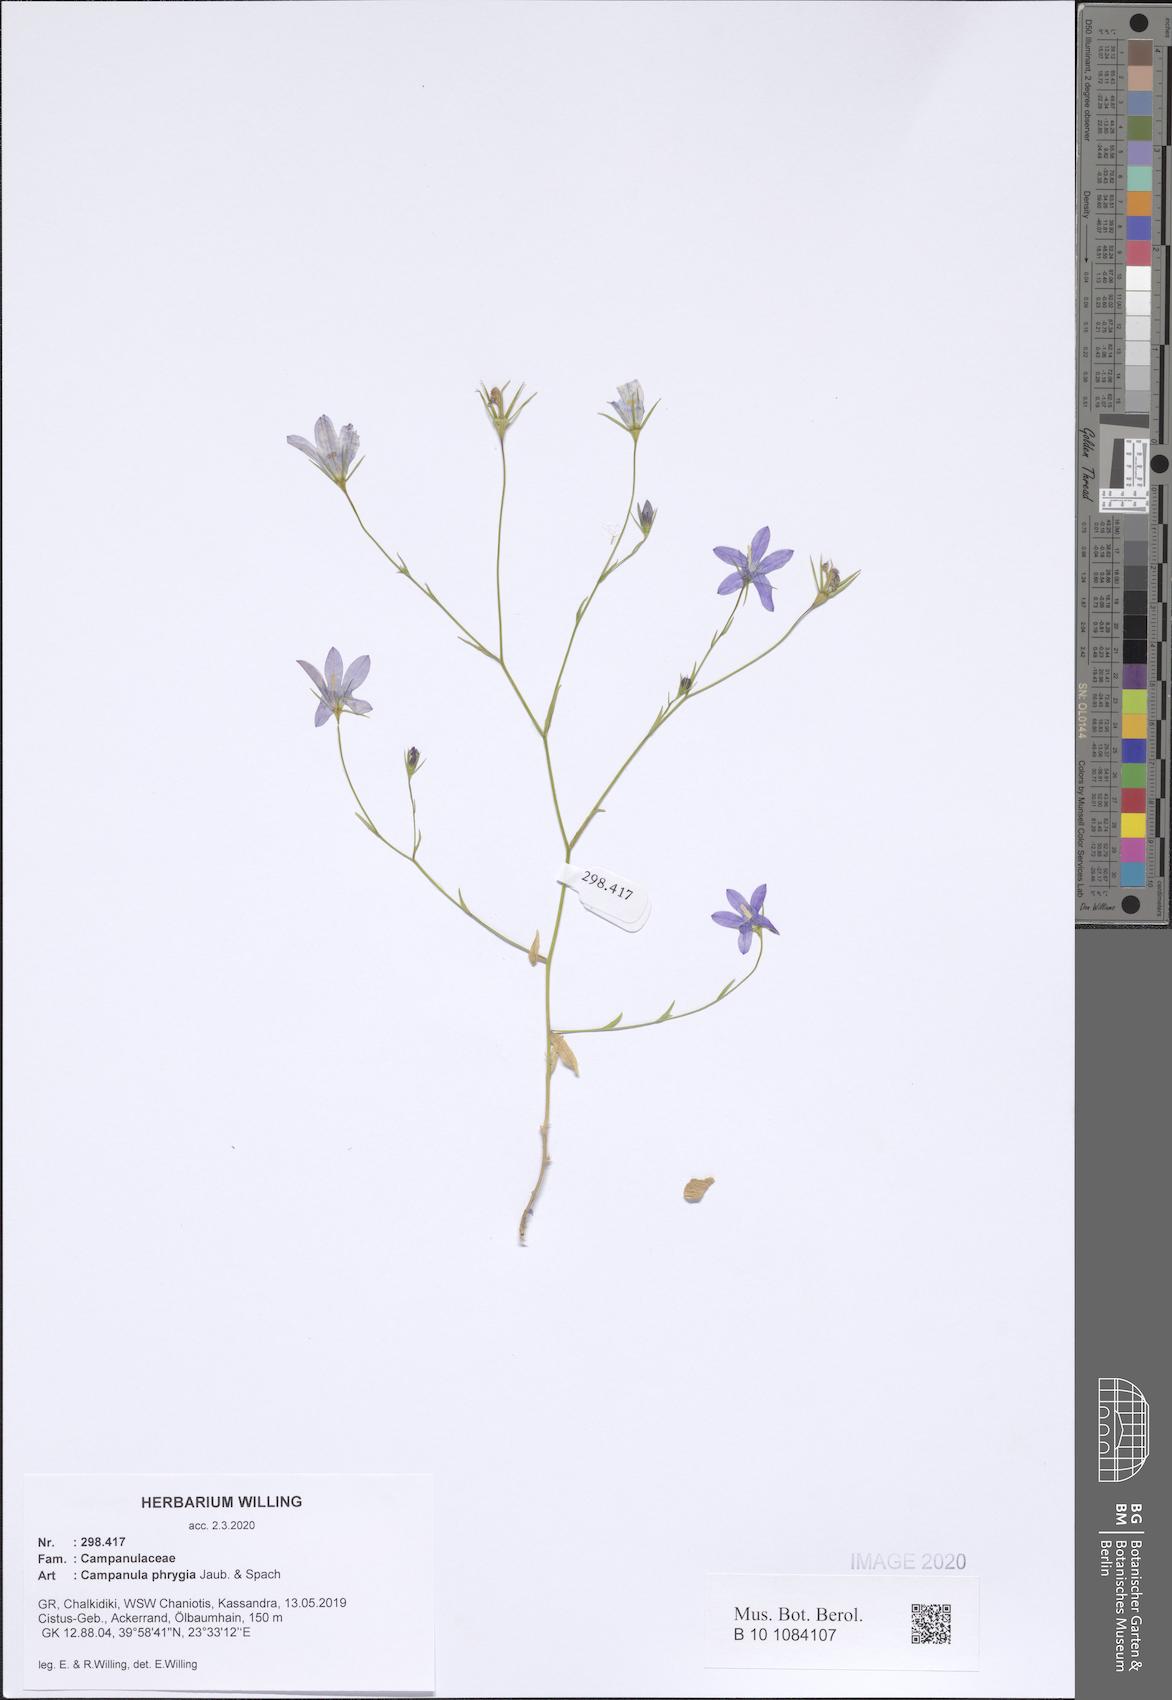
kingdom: Plantae
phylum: Tracheophyta
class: Magnoliopsida
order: Asterales
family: Campanulaceae
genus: Campanula
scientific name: Campanula phrygia
